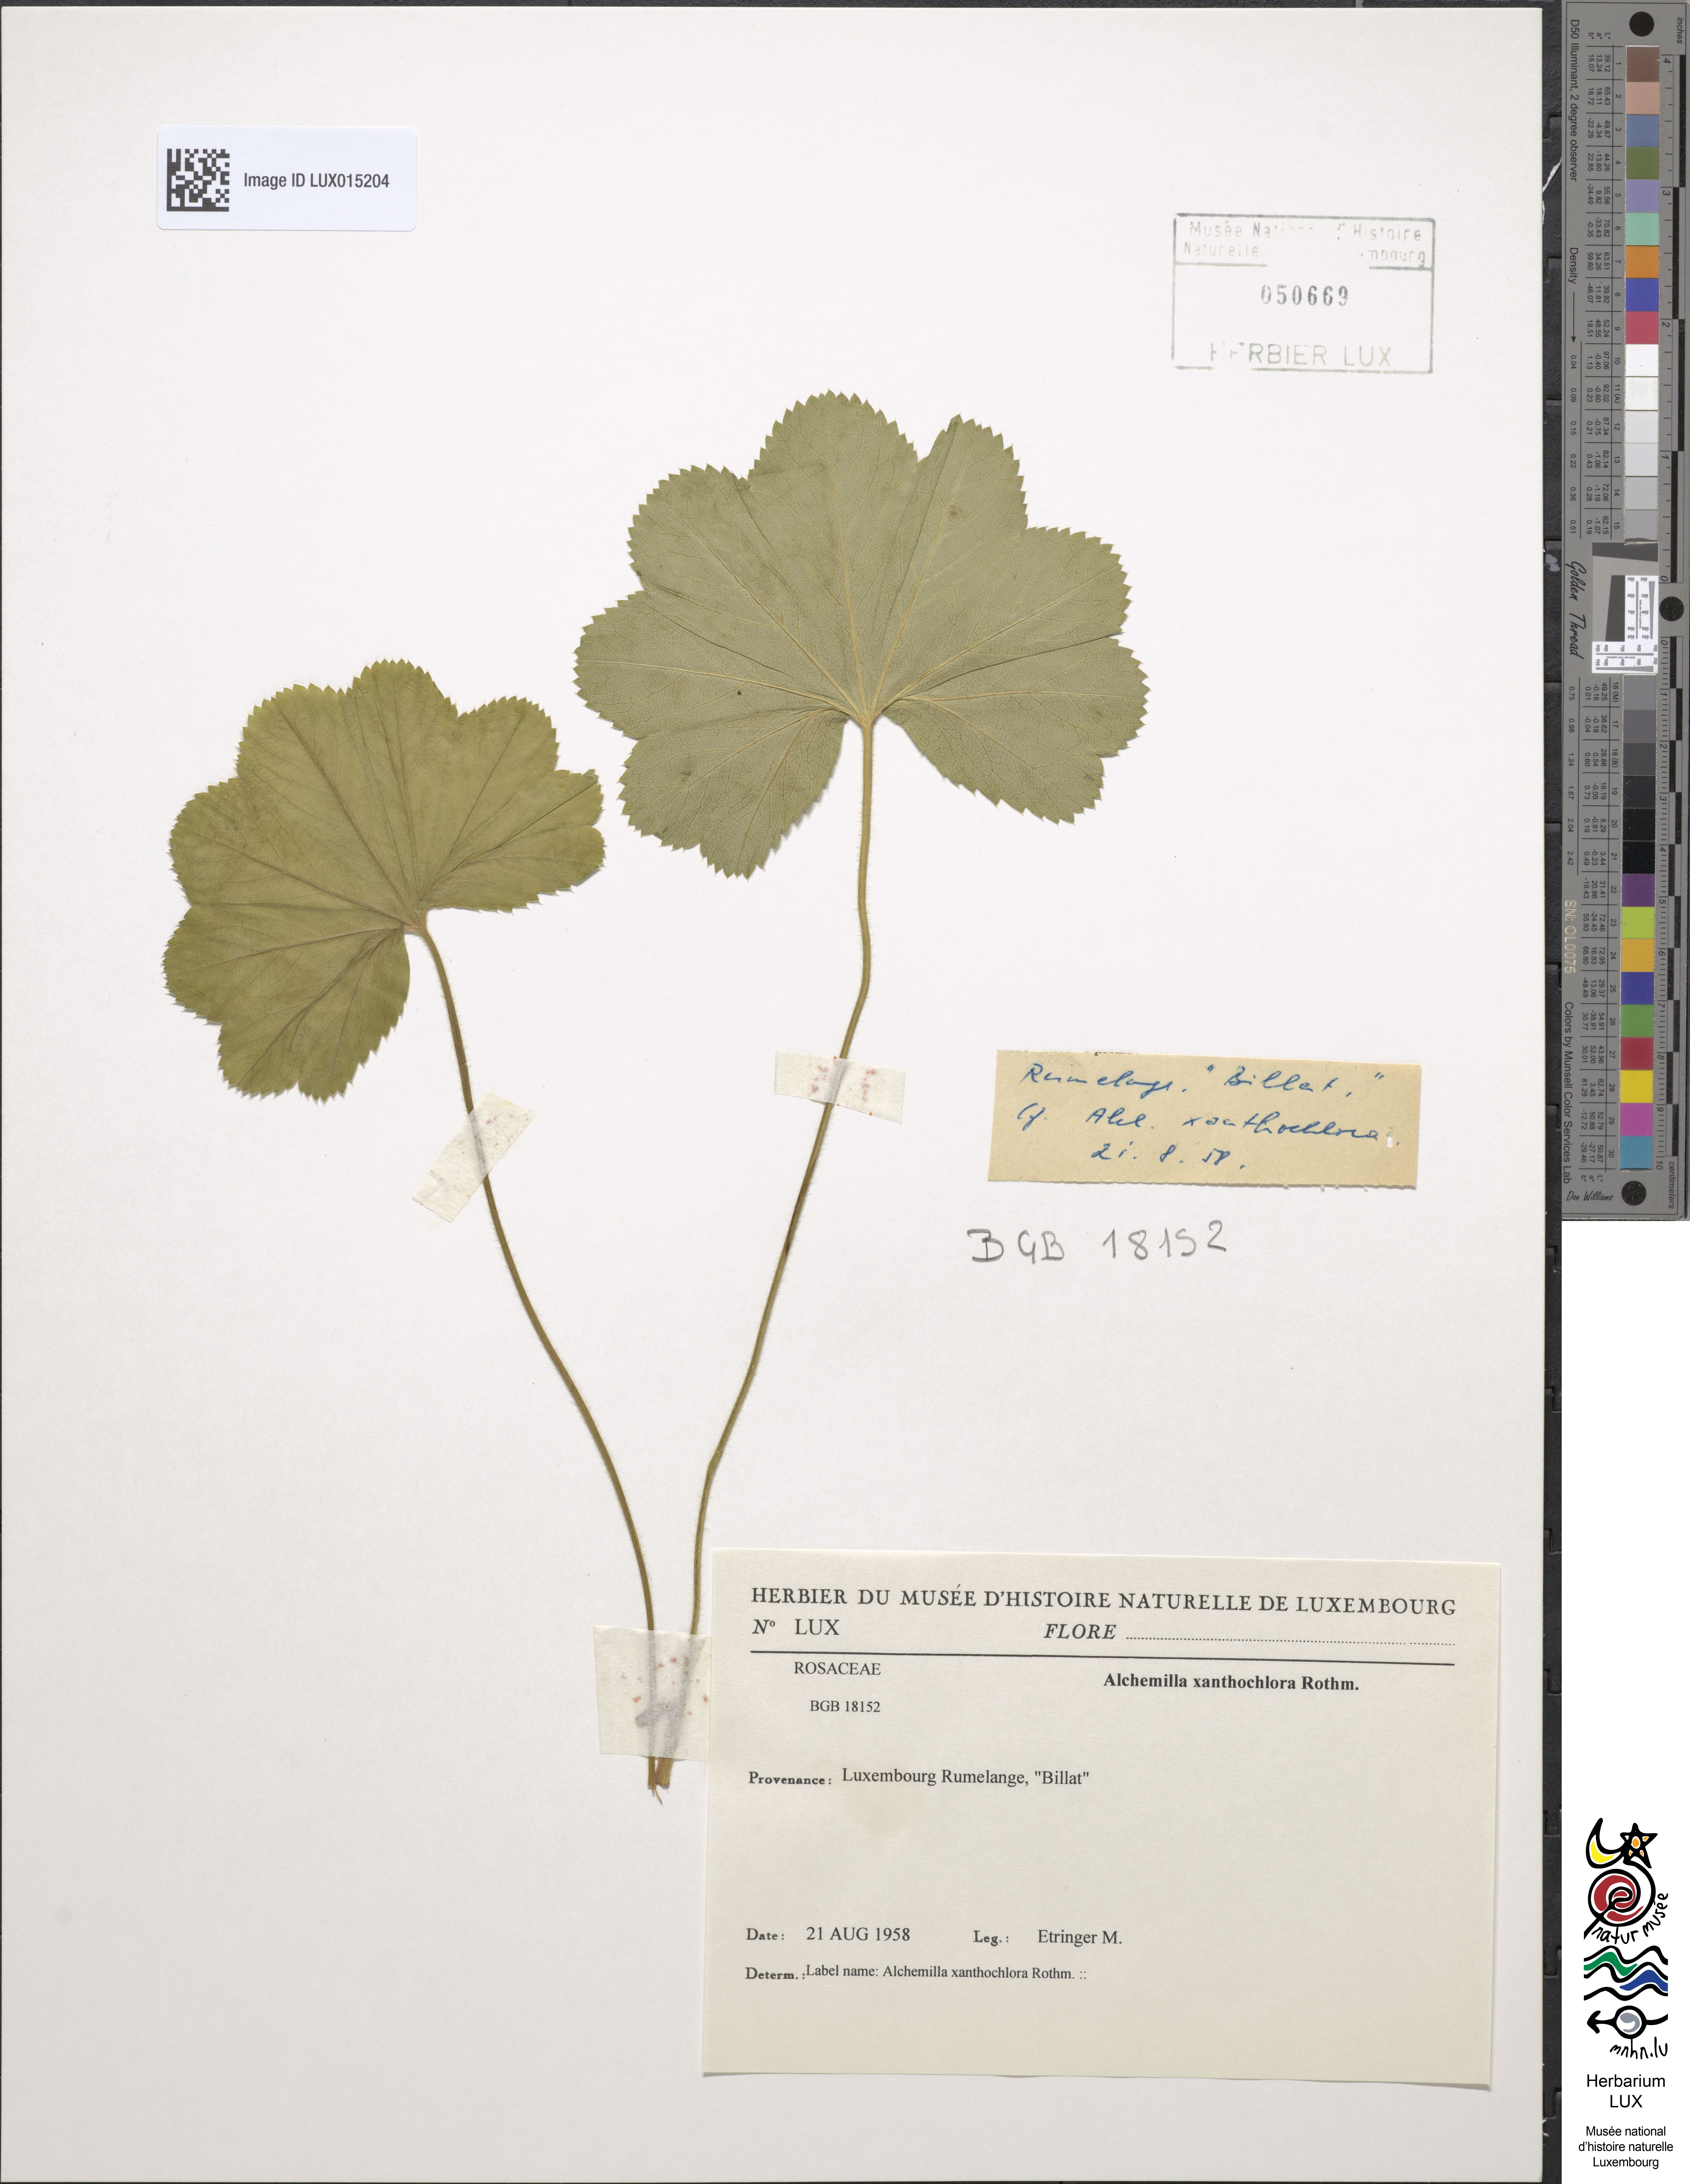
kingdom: Plantae
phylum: Tracheophyta
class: Magnoliopsida
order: Rosales
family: Rosaceae
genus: Alchemilla
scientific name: Alchemilla xanthochlora
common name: Intermediate lady's-mantle
